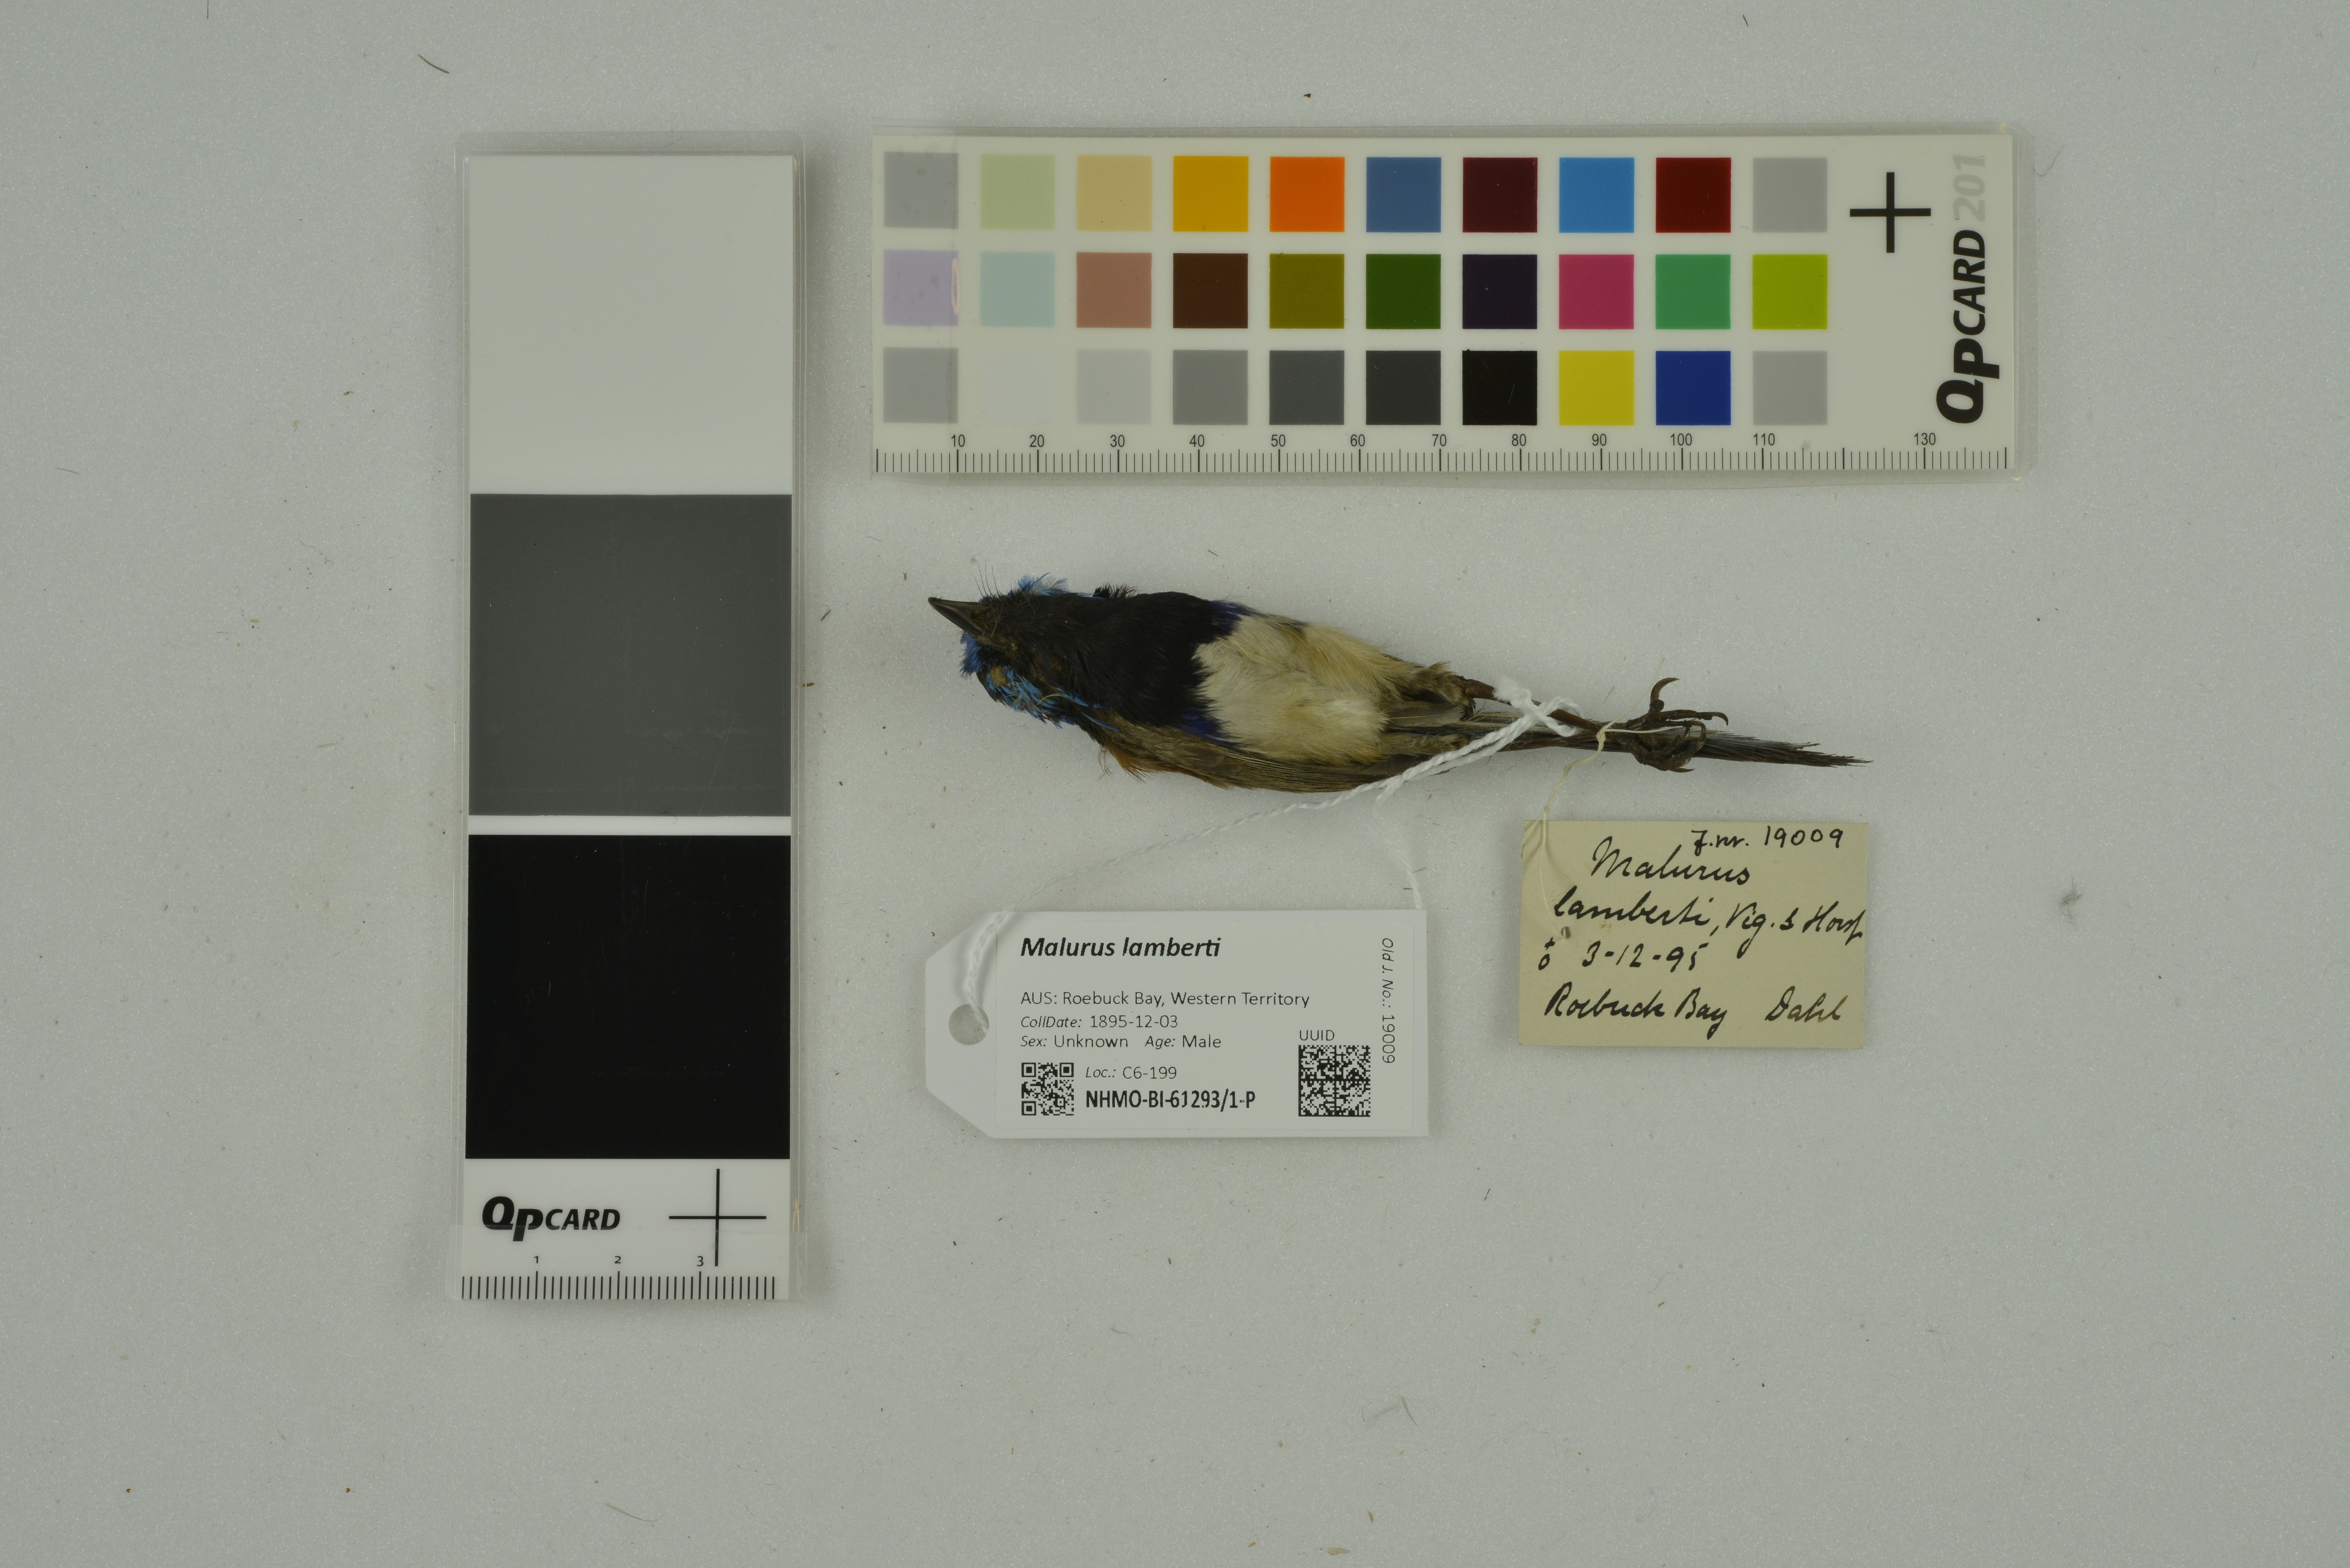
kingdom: Animalia
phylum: Chordata
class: Aves
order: Passeriformes
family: Maluridae
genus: Malurus
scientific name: Malurus assimilis
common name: Purple-backed fairywren
